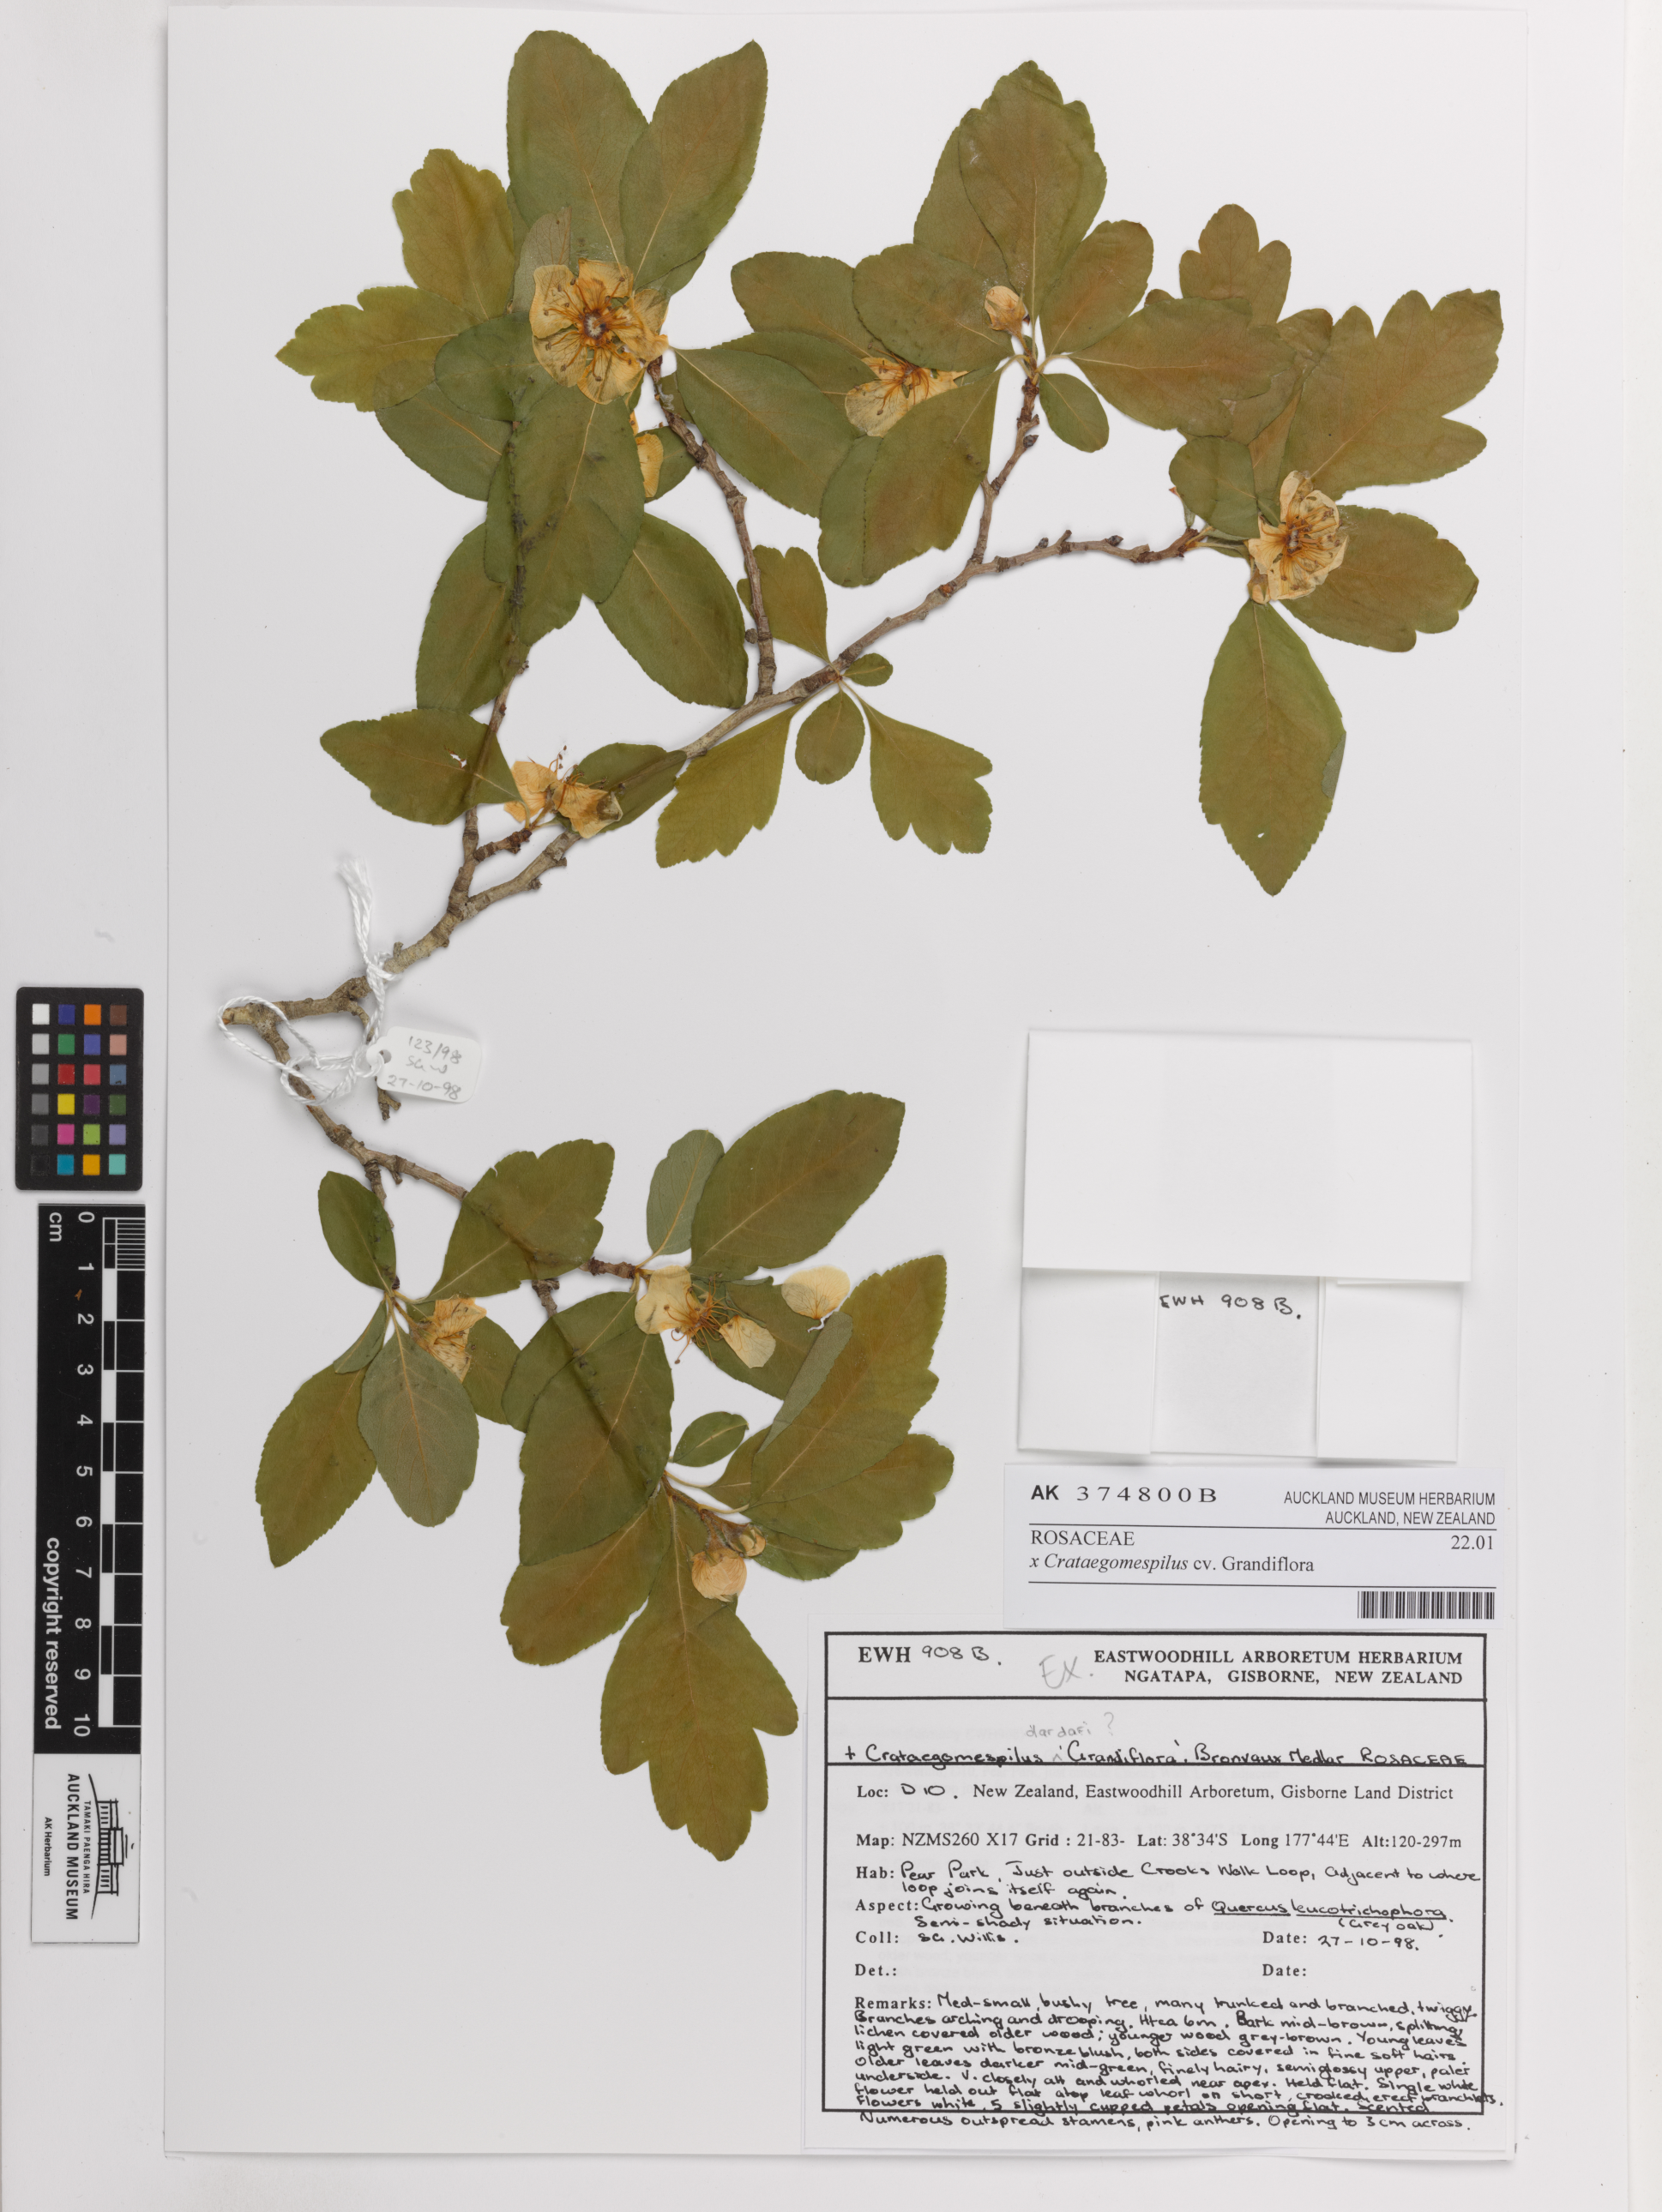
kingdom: Plantae
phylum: Tracheophyta
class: Magnoliopsida
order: Rosales
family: Rosaceae
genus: Crataegus
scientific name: Crataegus
